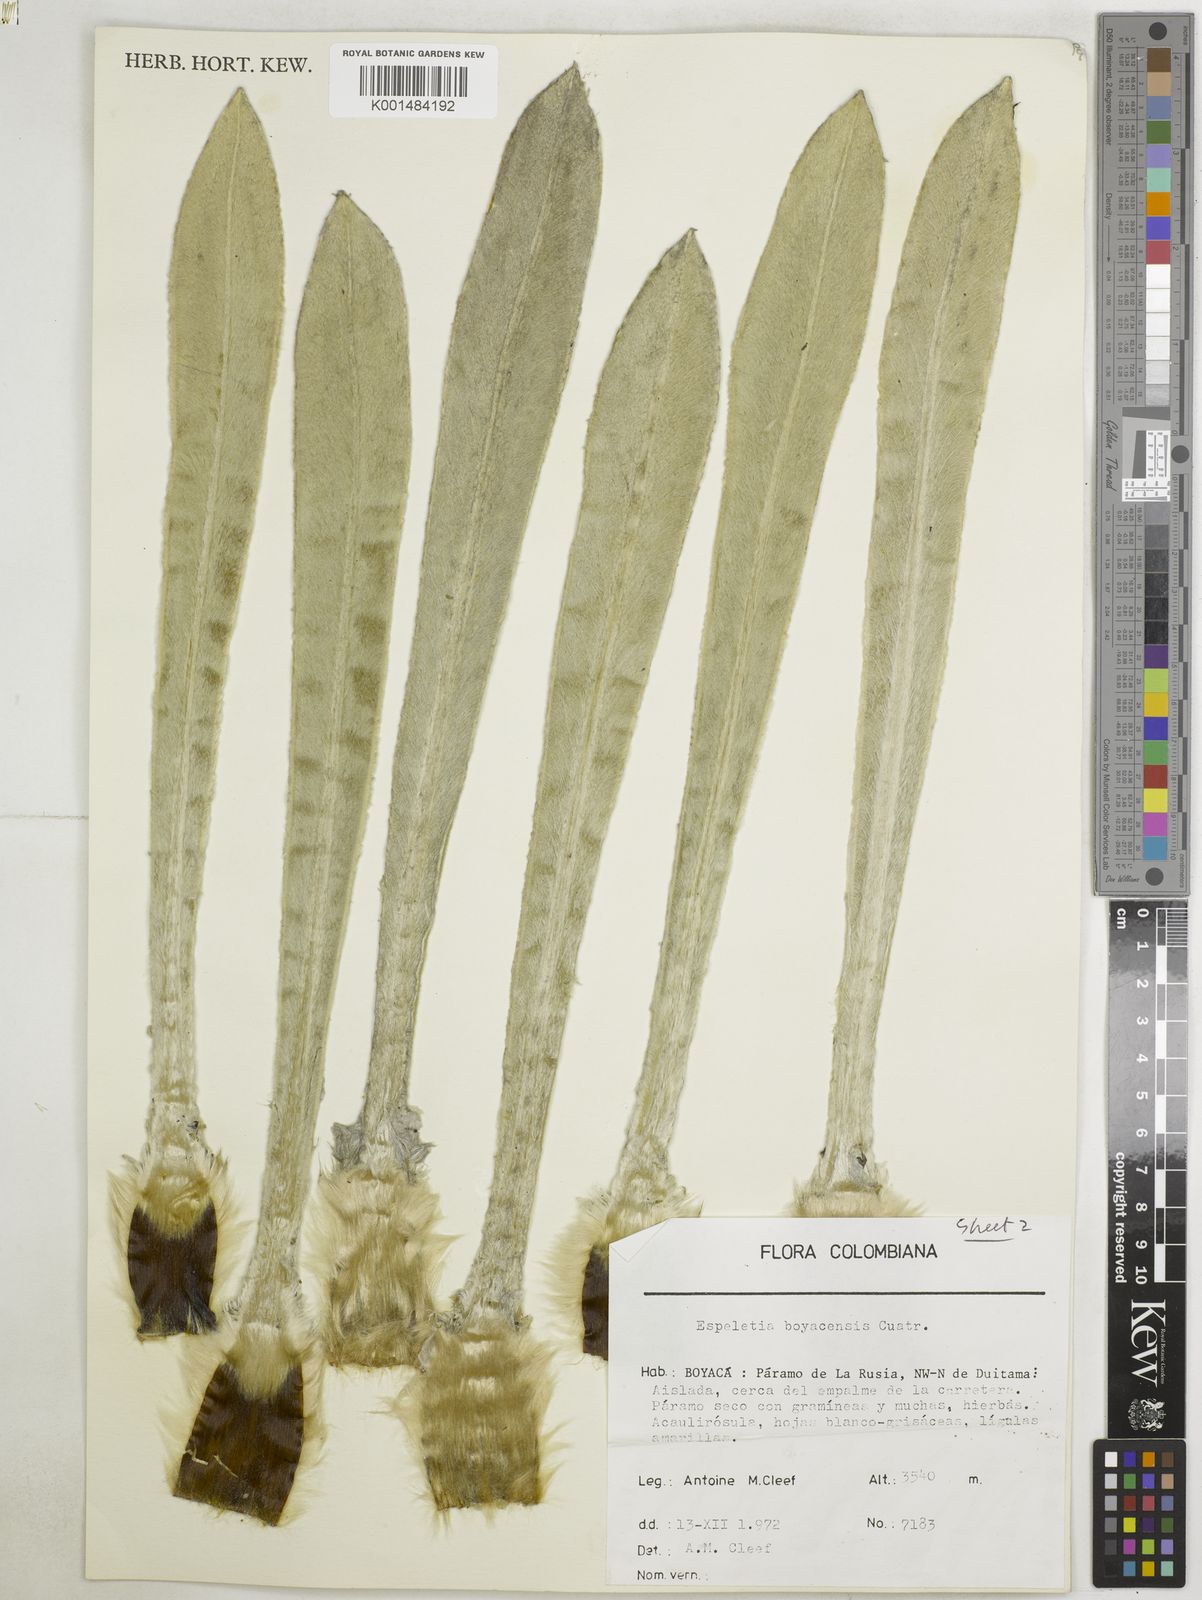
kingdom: Plantae
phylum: Tracheophyta
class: Magnoliopsida
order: Asterales
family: Asteraceae
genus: Espeletia
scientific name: Espeletia boyacensis
